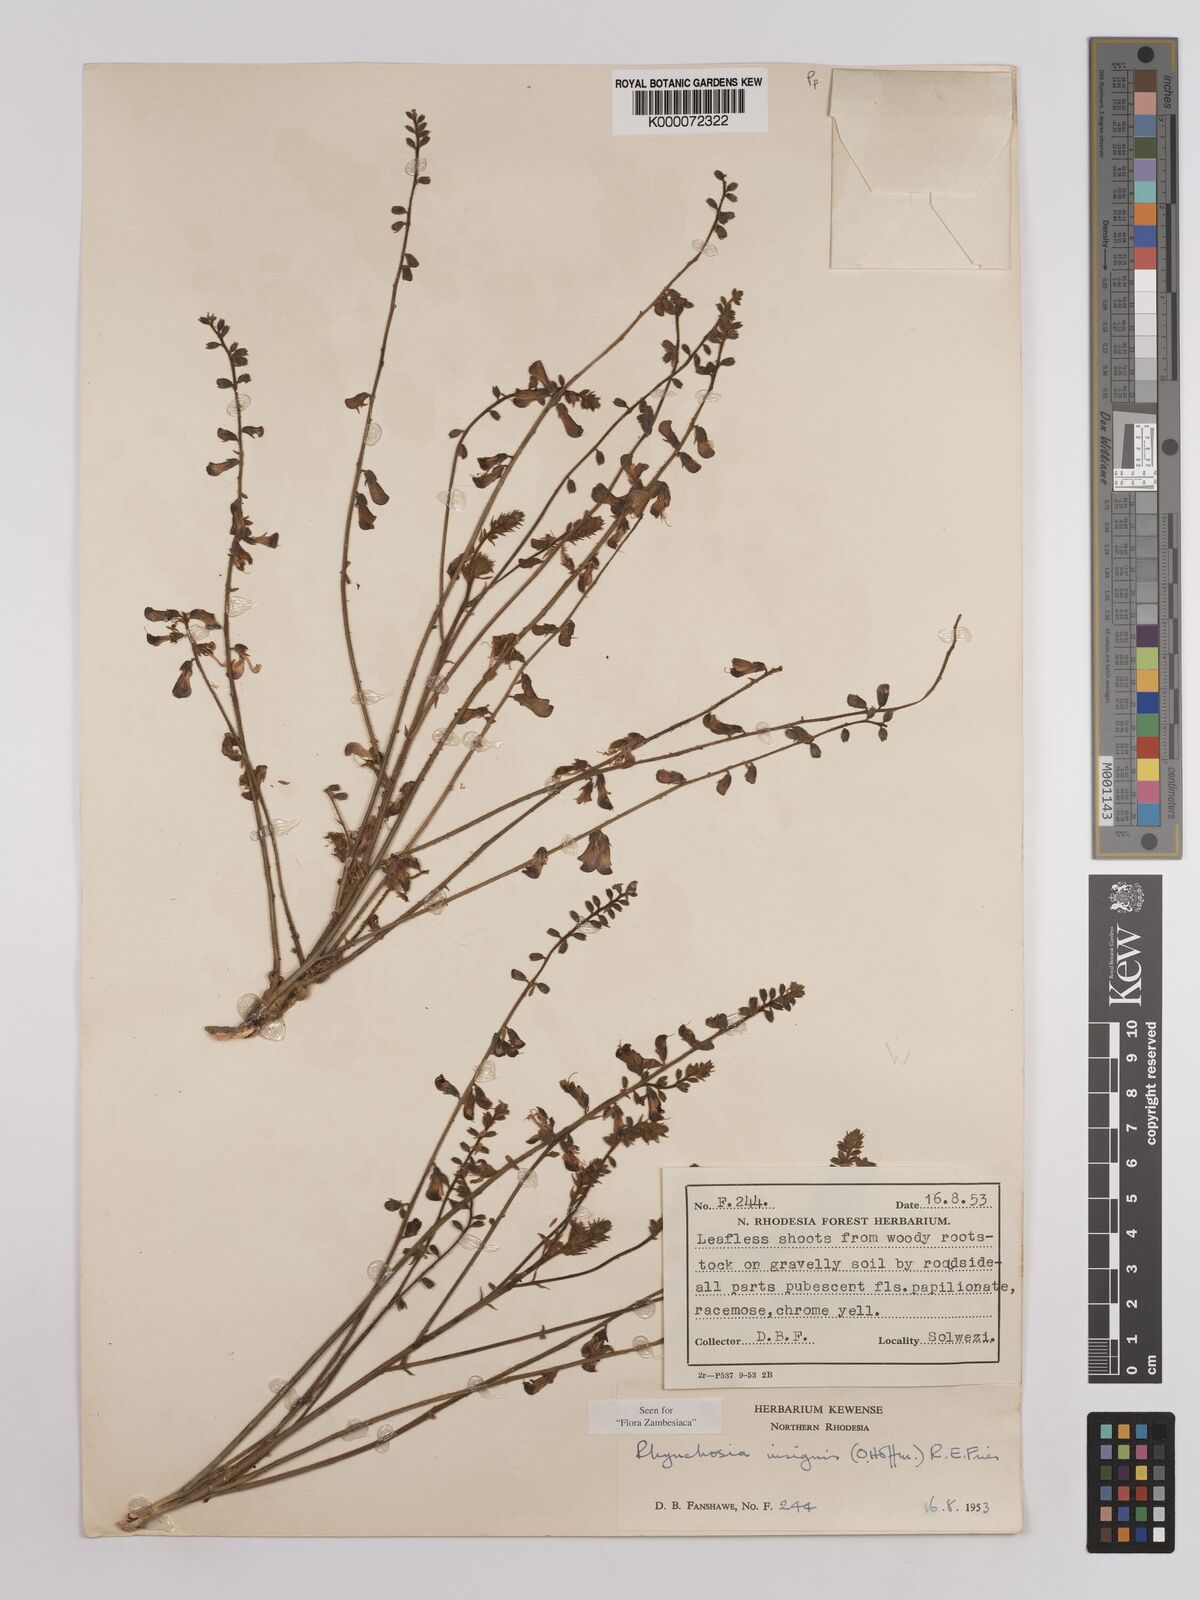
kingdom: Plantae
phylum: Tracheophyta
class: Magnoliopsida
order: Fabales
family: Fabaceae
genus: Rhynchosia
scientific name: Rhynchosia insignis
